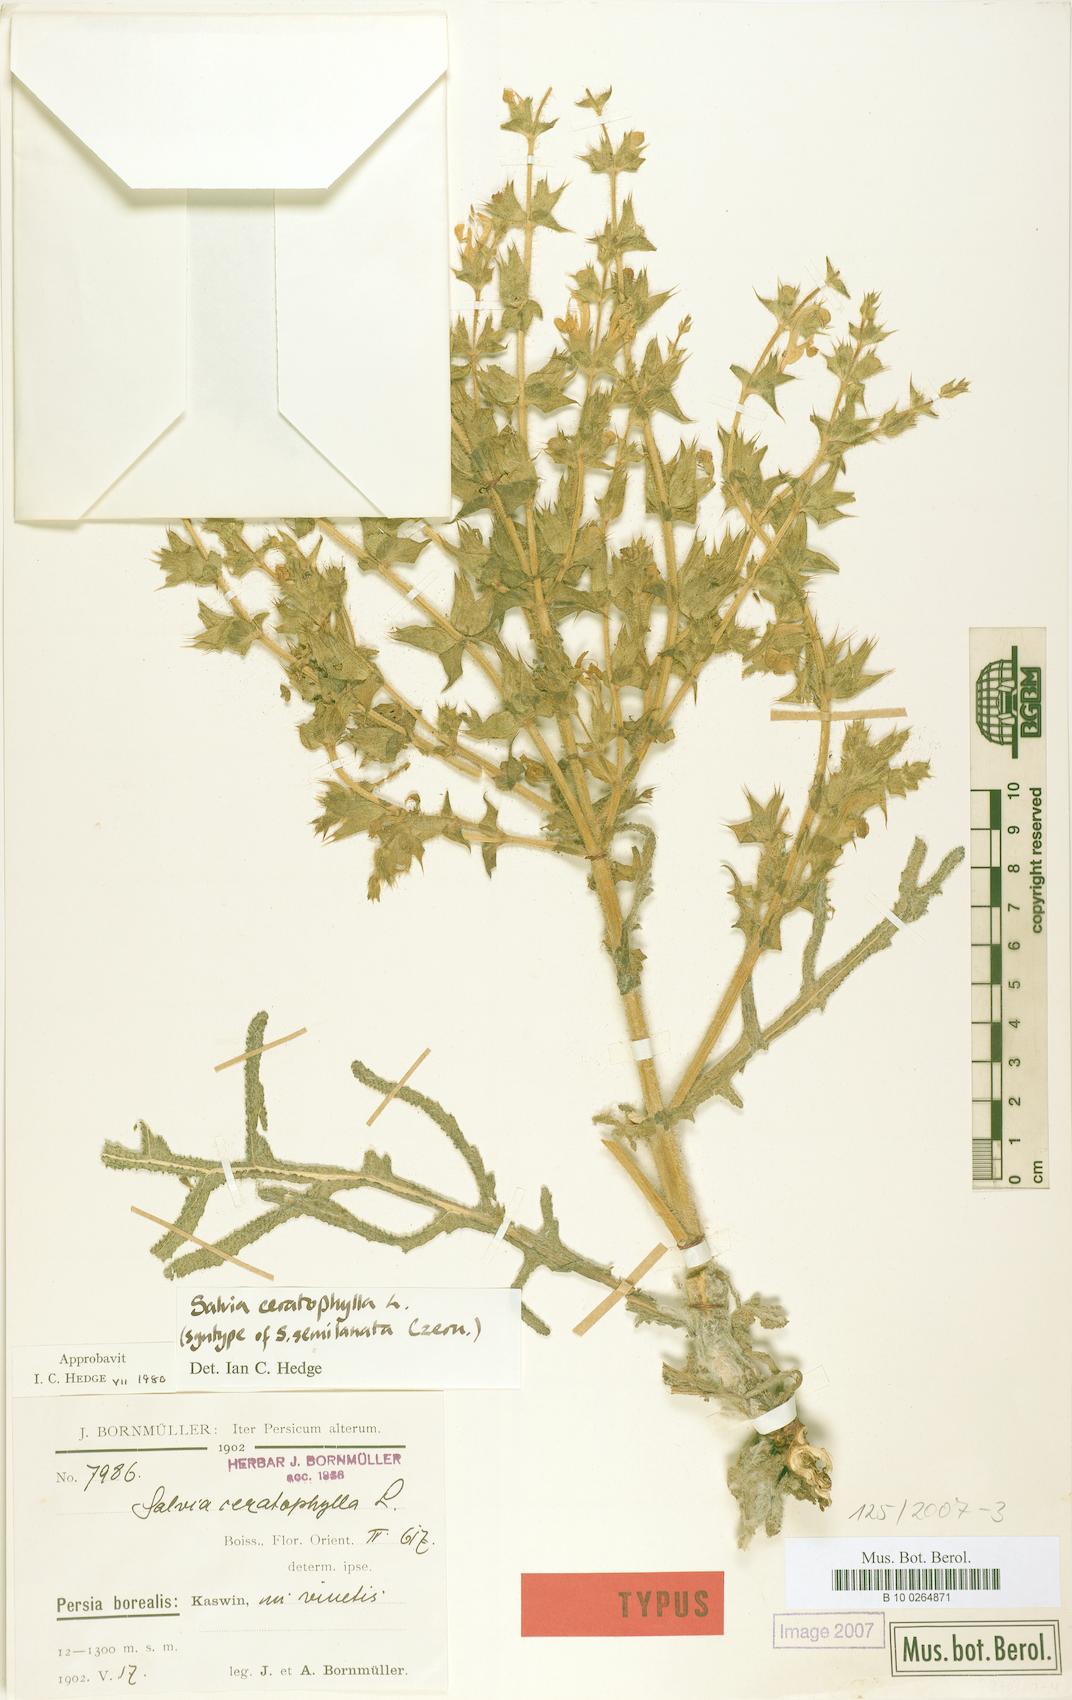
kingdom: Plantae
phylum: Tracheophyta
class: Magnoliopsida
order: Lamiales
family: Lamiaceae
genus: Salvia
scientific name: Salvia ceratophylla
